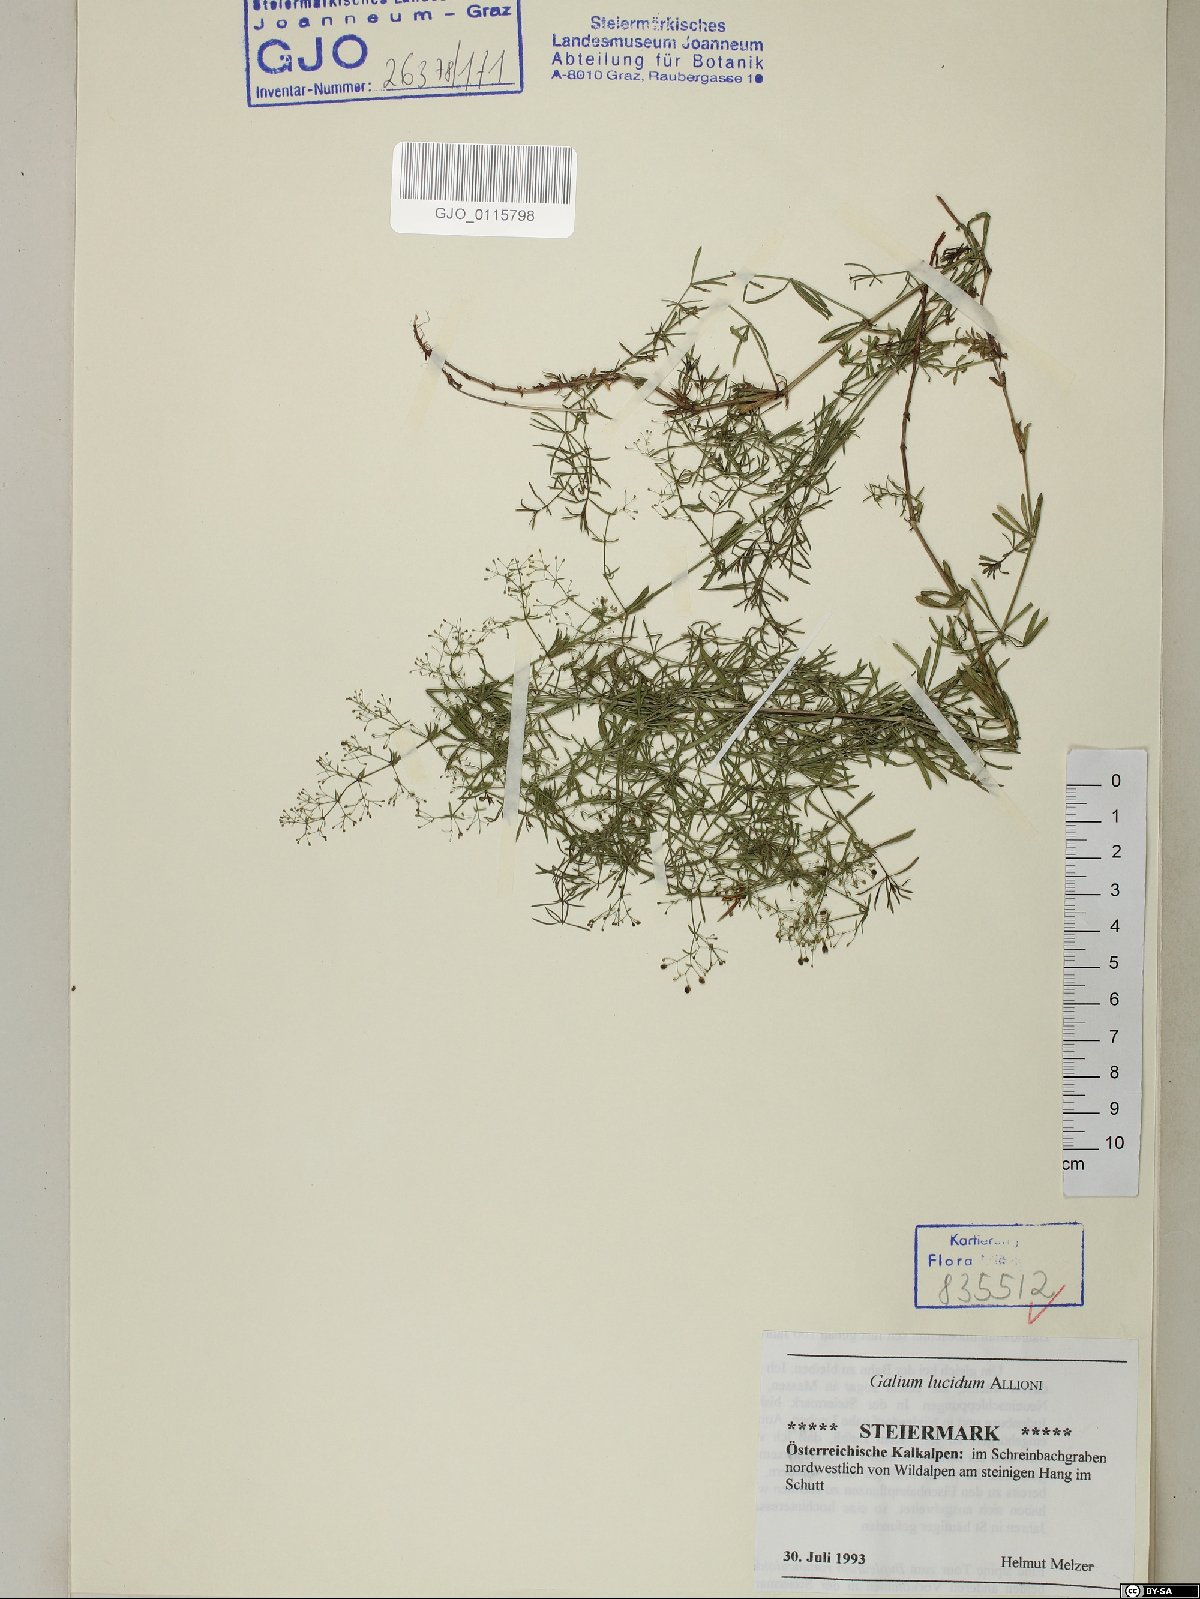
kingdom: Plantae
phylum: Tracheophyta
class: Magnoliopsida
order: Gentianales
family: Rubiaceae
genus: Galium
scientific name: Galium lucidum
